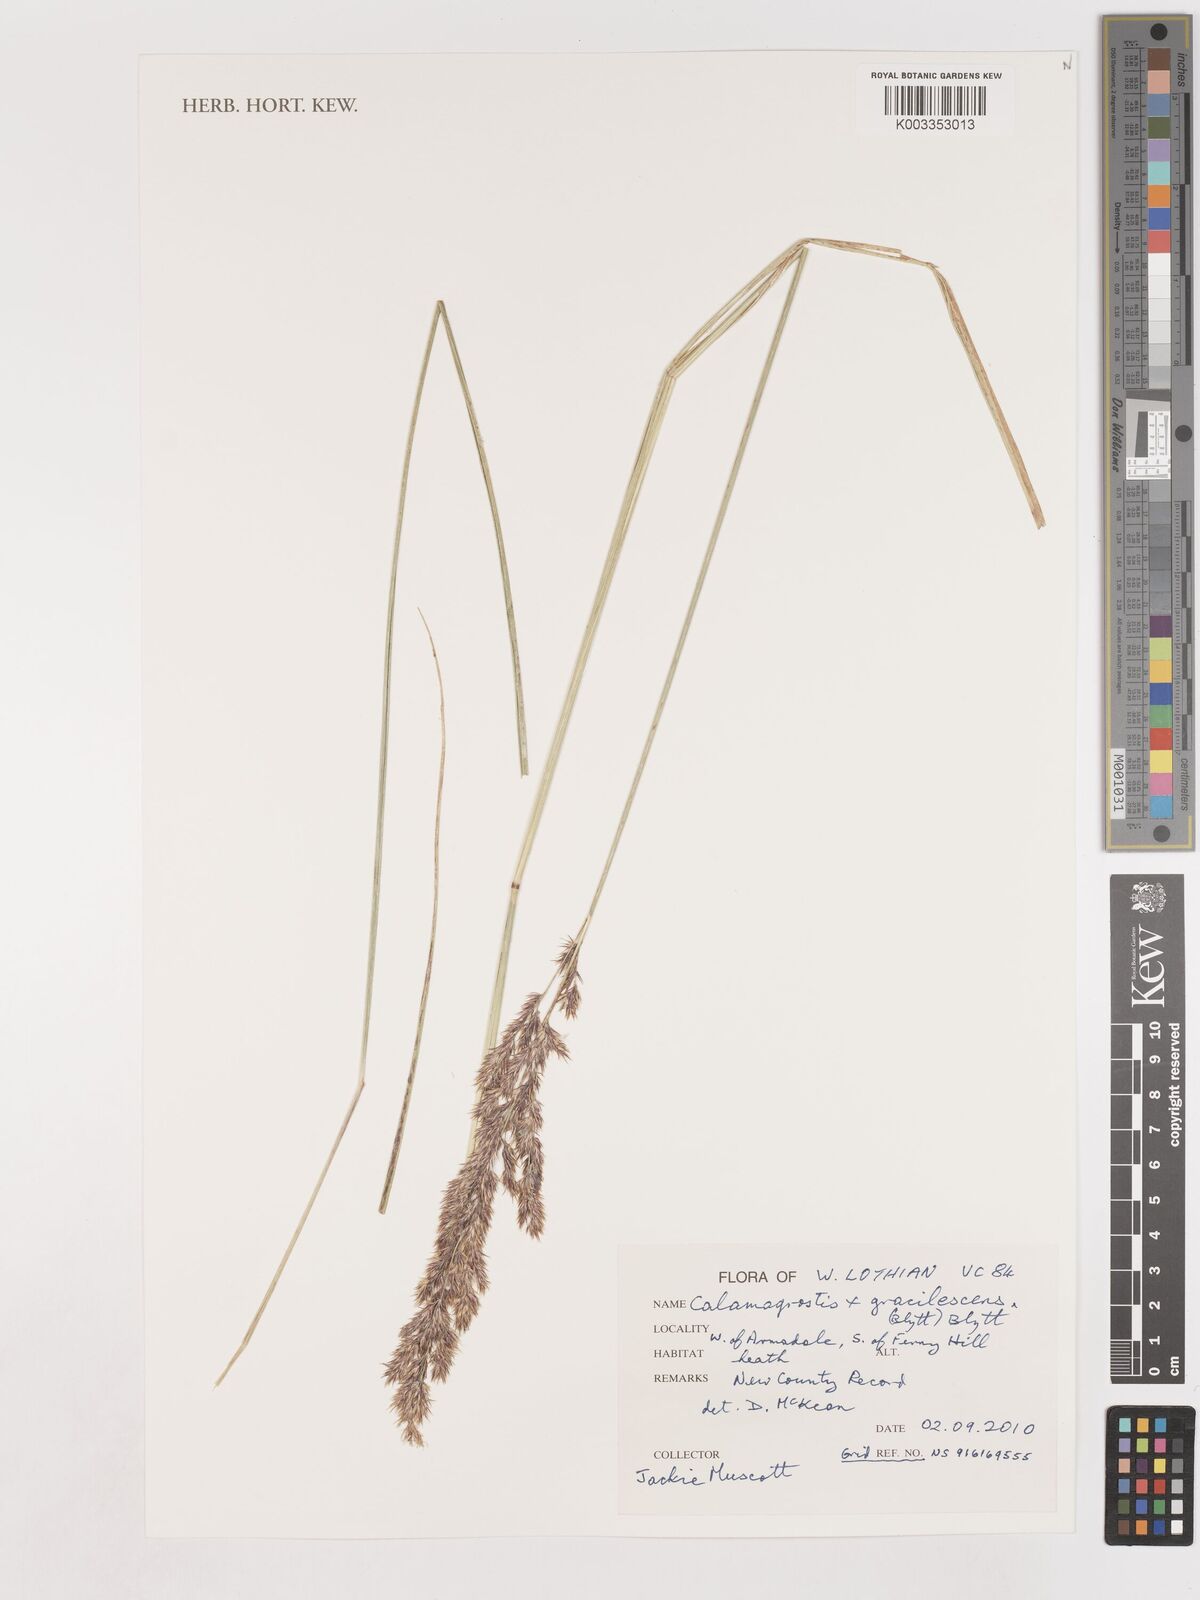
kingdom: Plantae
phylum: Tracheophyta
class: Liliopsida
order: Poales
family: Poaceae
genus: Calamagrostis
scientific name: Calamagrostis canescens
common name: Purple small-reed
